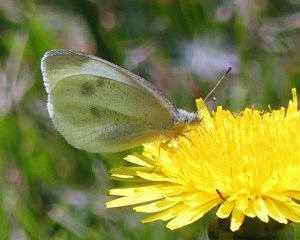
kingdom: Animalia
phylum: Arthropoda
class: Insecta
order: Lepidoptera
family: Pieridae
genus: Pieris
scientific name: Pieris rapae
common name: Cabbage White
